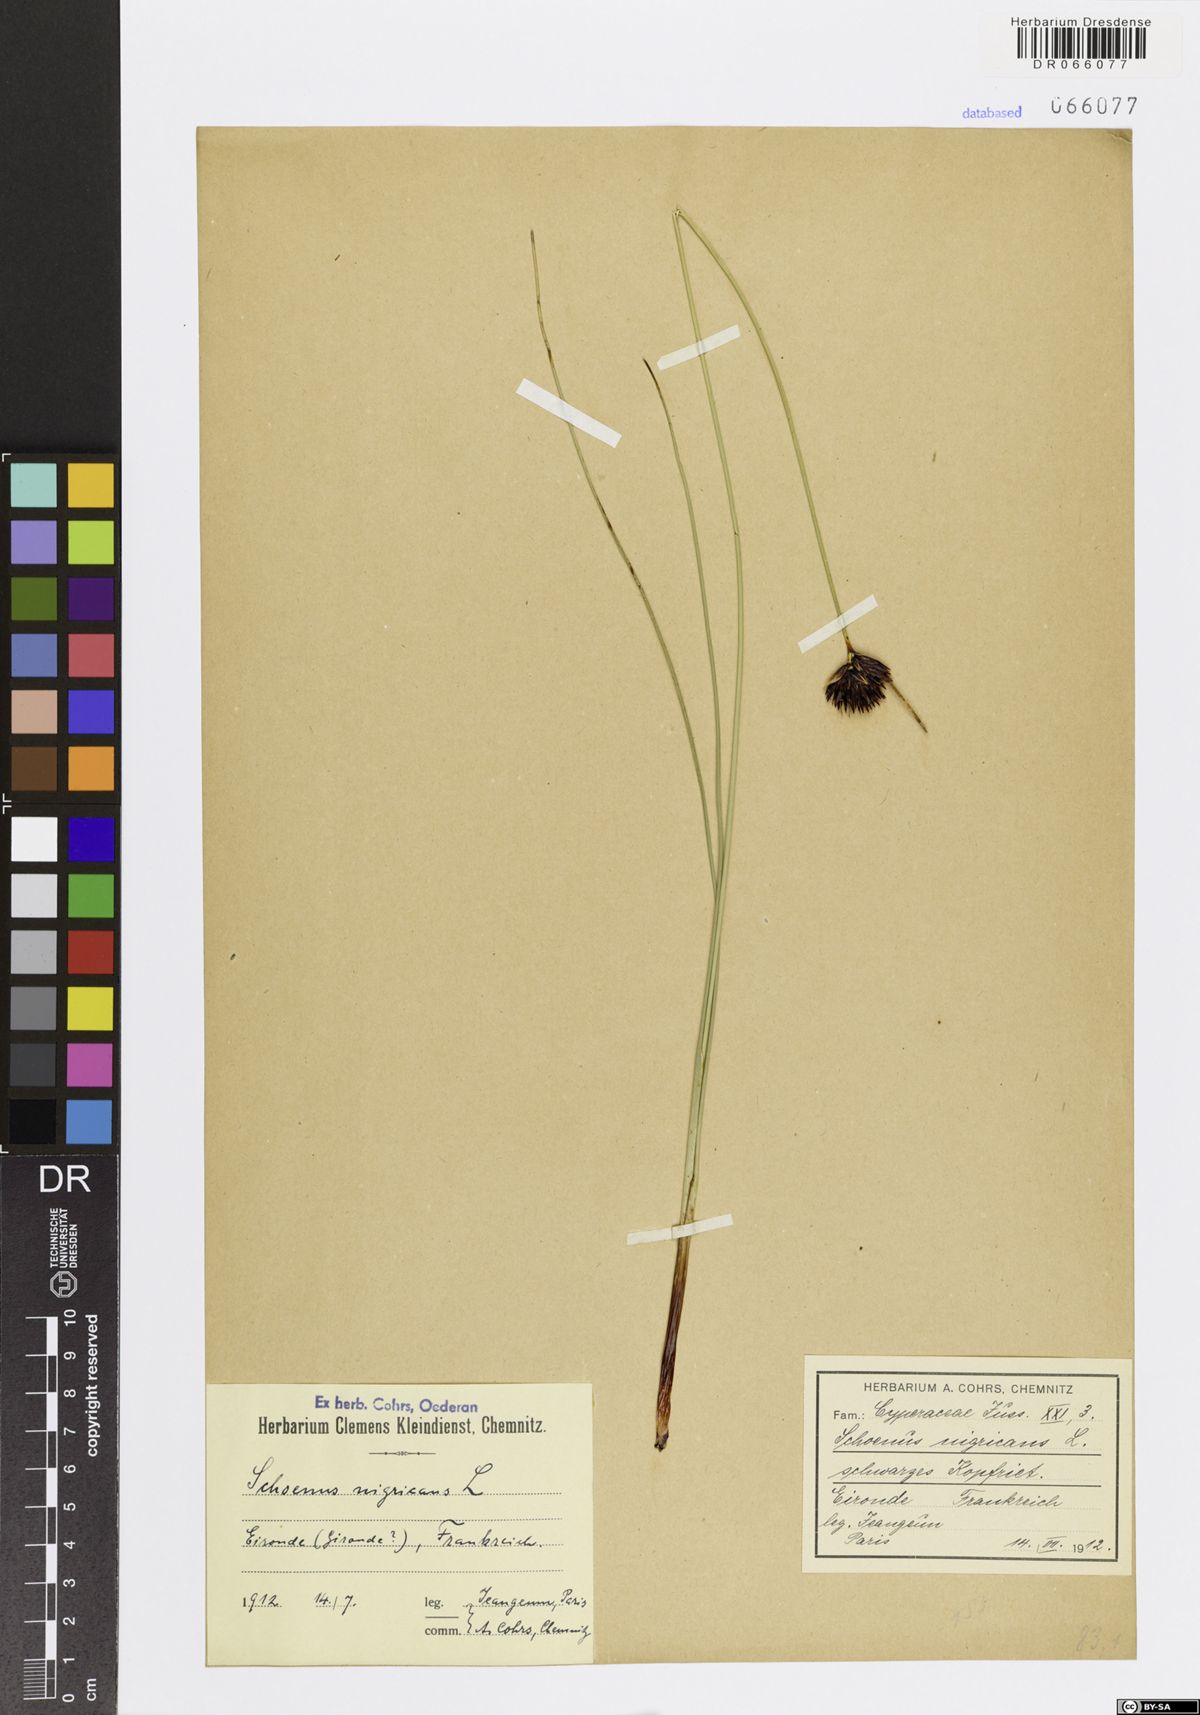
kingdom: Plantae
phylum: Tracheophyta
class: Liliopsida
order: Poales
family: Cyperaceae
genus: Schoenus
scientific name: Schoenus nigricans
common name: Black bog-rush
